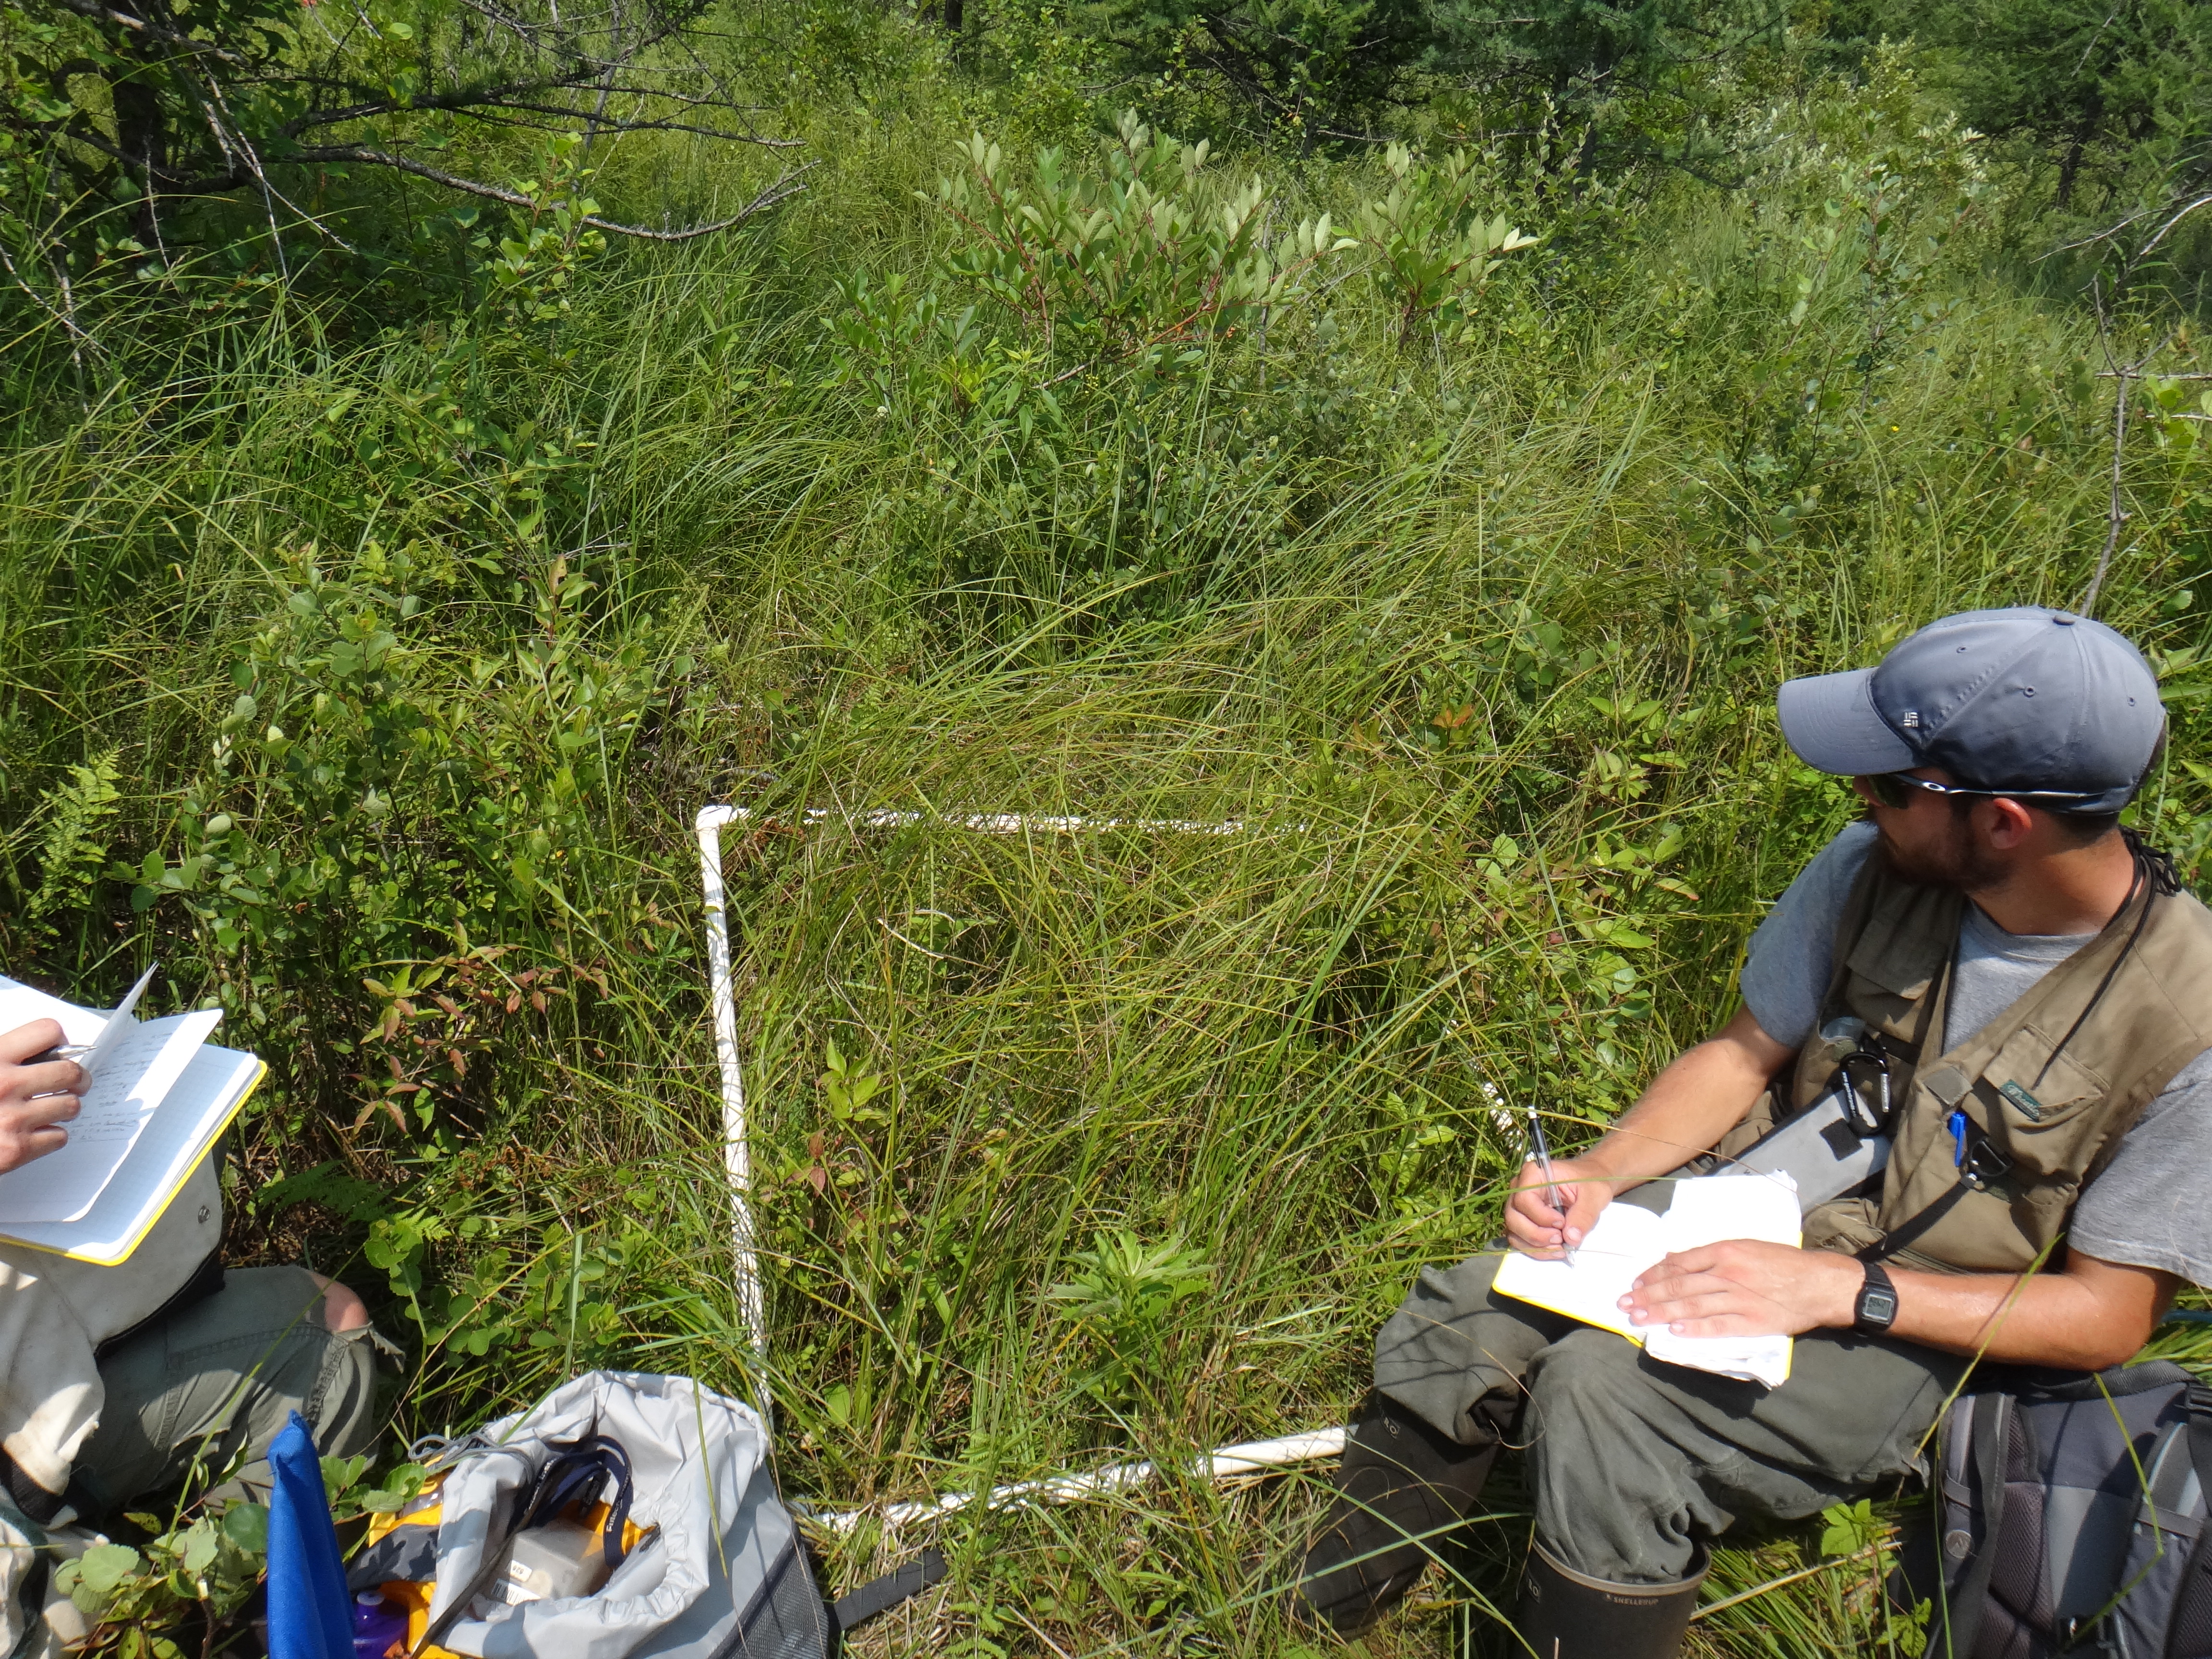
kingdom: Plantae
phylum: Tracheophyta
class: Magnoliopsida
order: Rosales
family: Rosaceae
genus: Dasiphora
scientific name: Dasiphora fruticosa
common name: Shrubby cinquefoil
